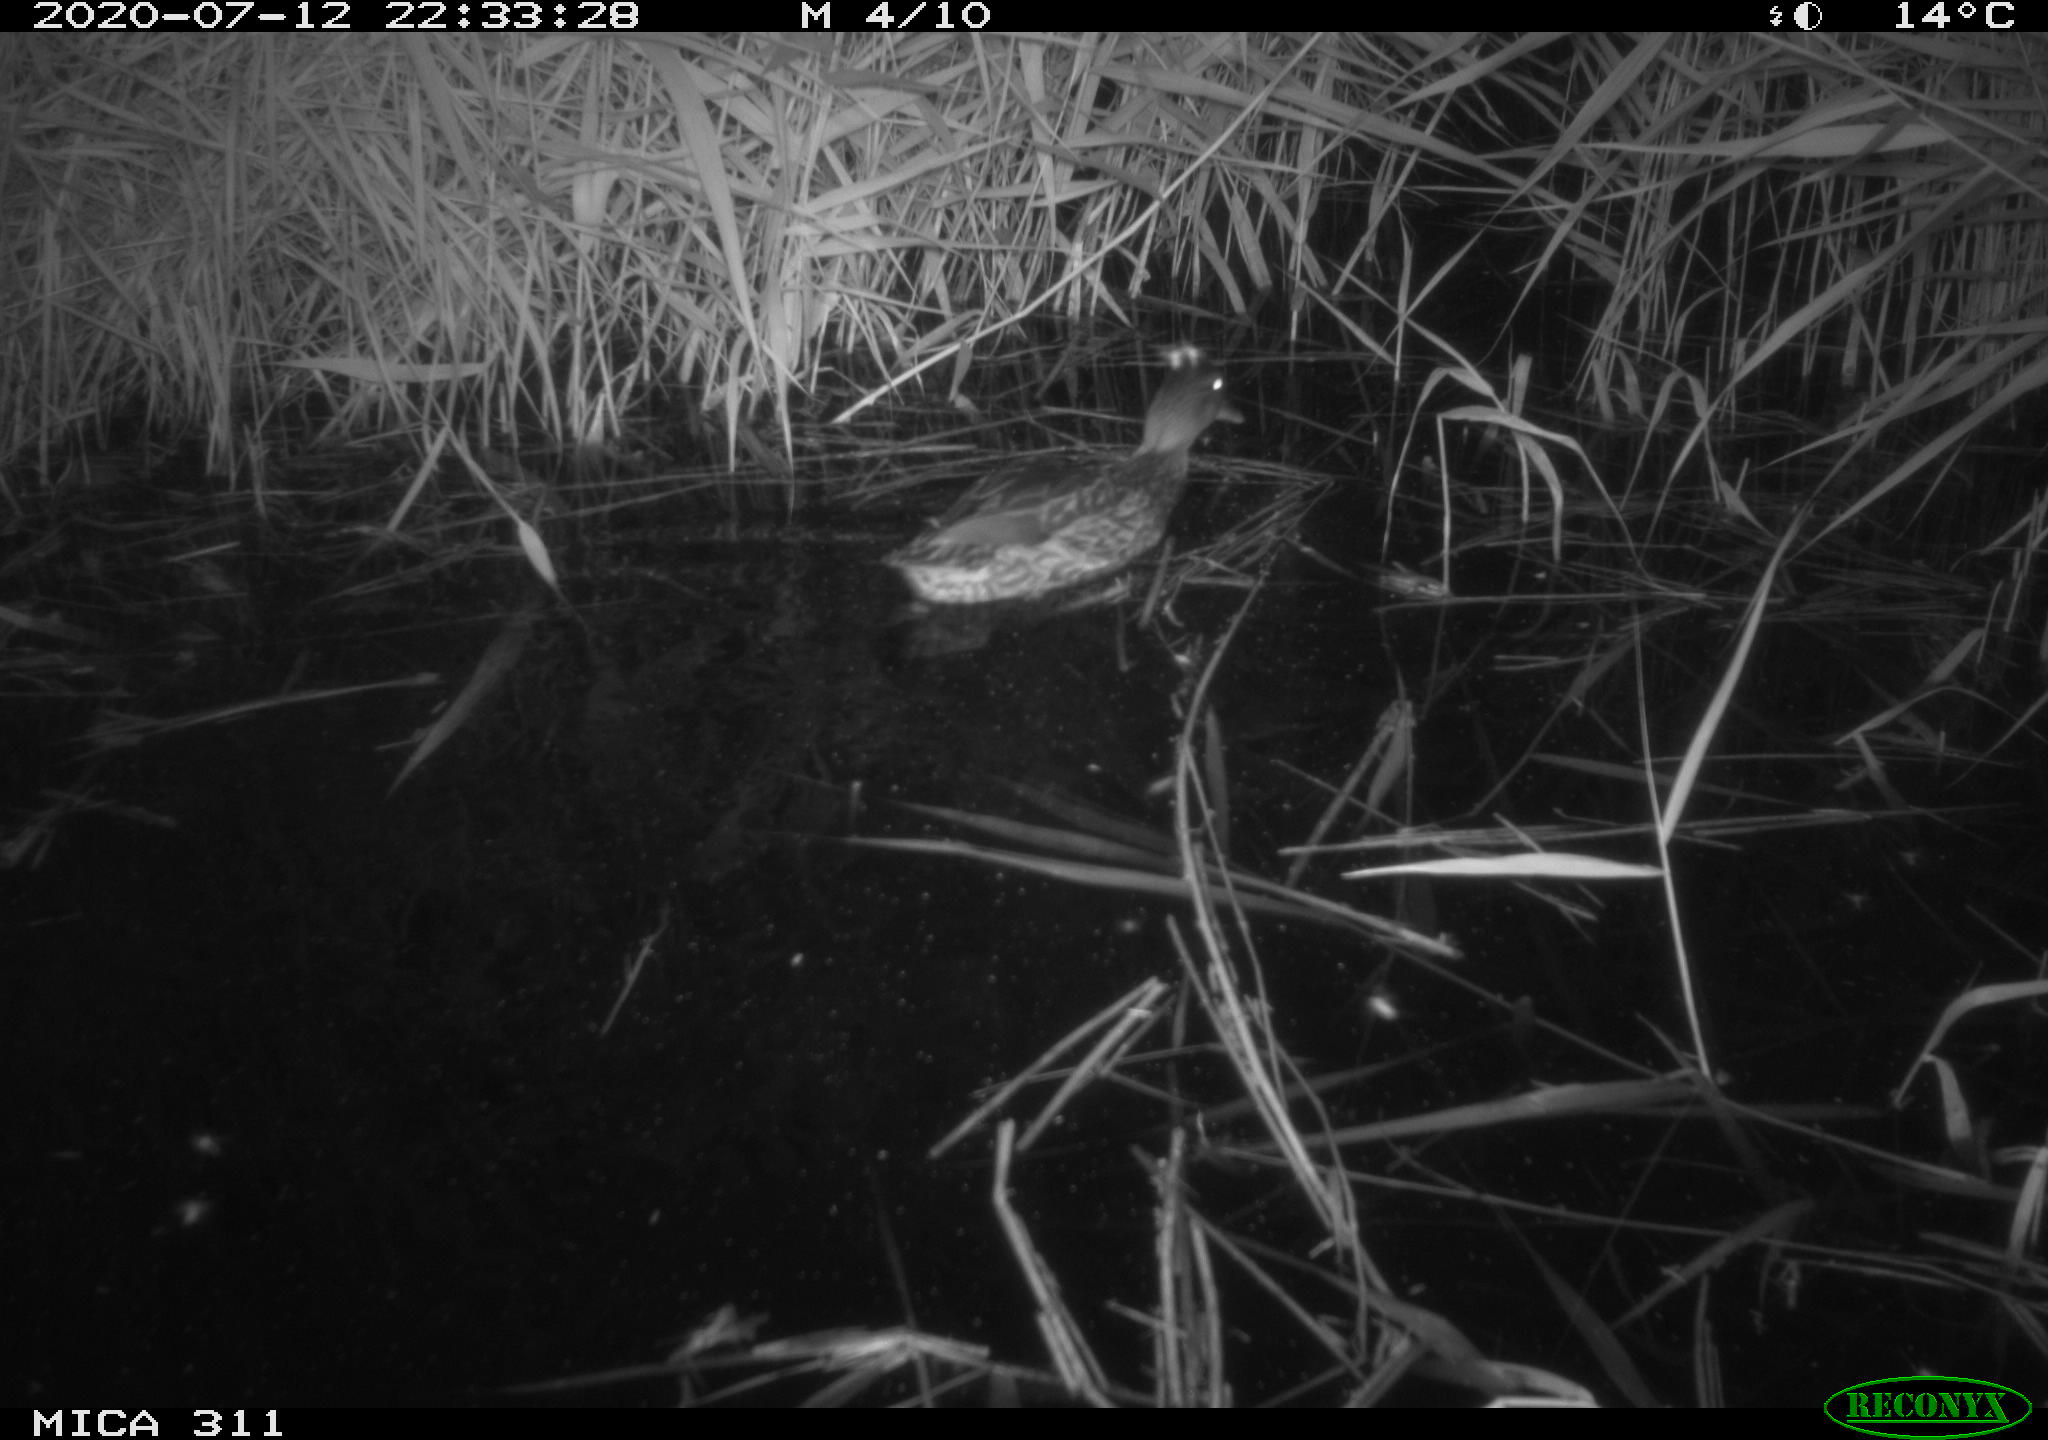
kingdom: Animalia
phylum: Chordata
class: Aves
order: Gruiformes
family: Rallidae
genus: Fulica
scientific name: Fulica atra
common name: Eurasian coot
